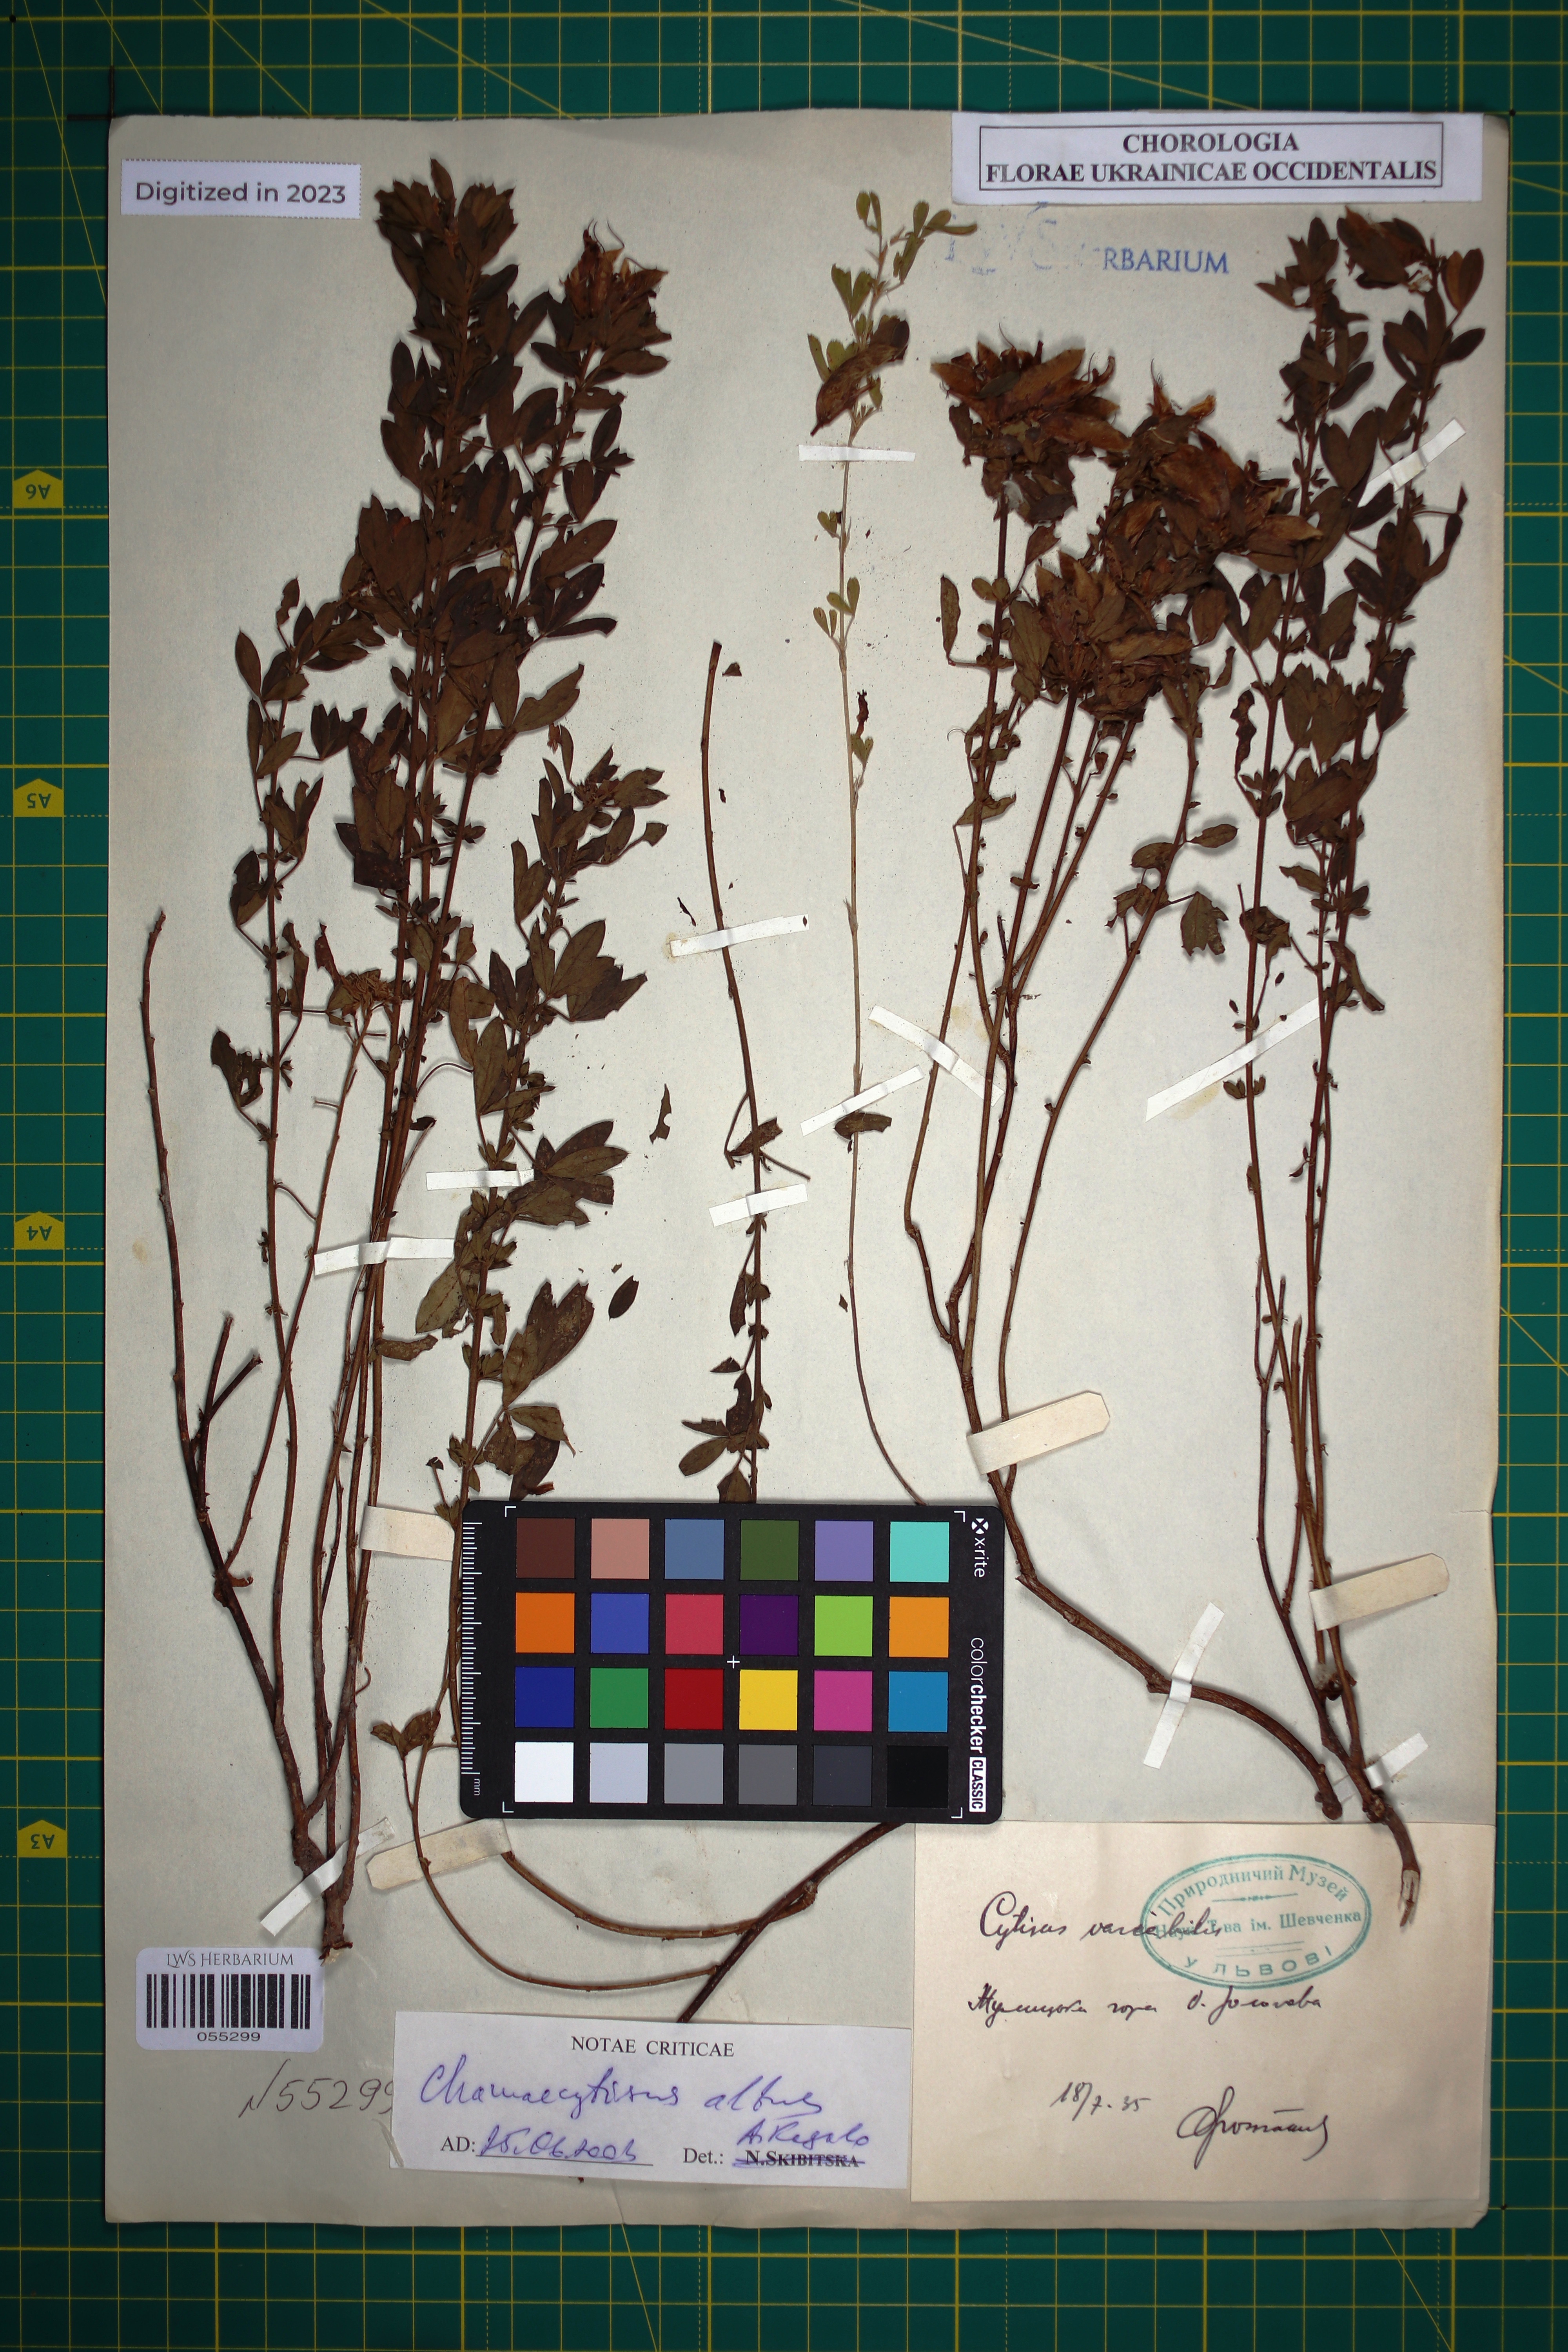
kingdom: Plantae
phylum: Tracheophyta
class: Magnoliopsida
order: Fabales
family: Fabaceae
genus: Chamaecytisus
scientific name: Chamaecytisus albus
